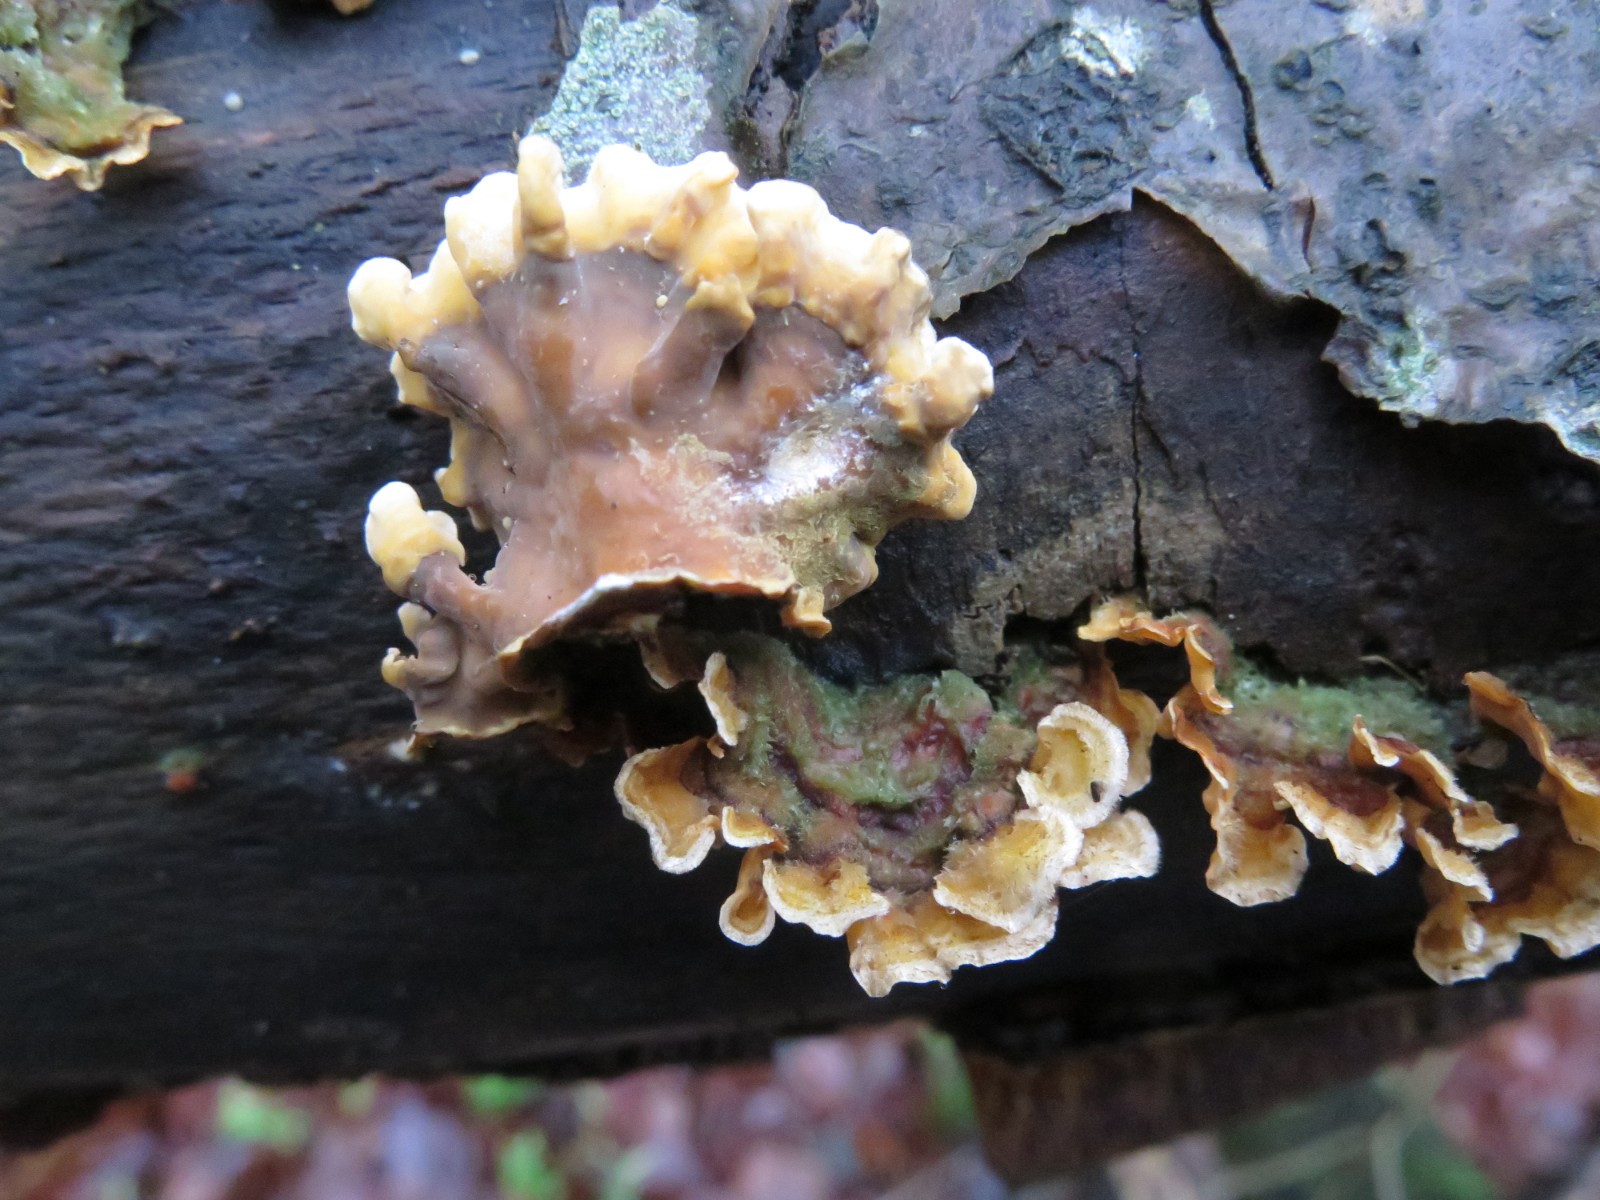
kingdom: Fungi
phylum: Basidiomycota
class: Agaricomycetes
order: Russulales
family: Stereaceae
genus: Stereum
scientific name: Stereum subtomentosum
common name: smuk lædersvamp
